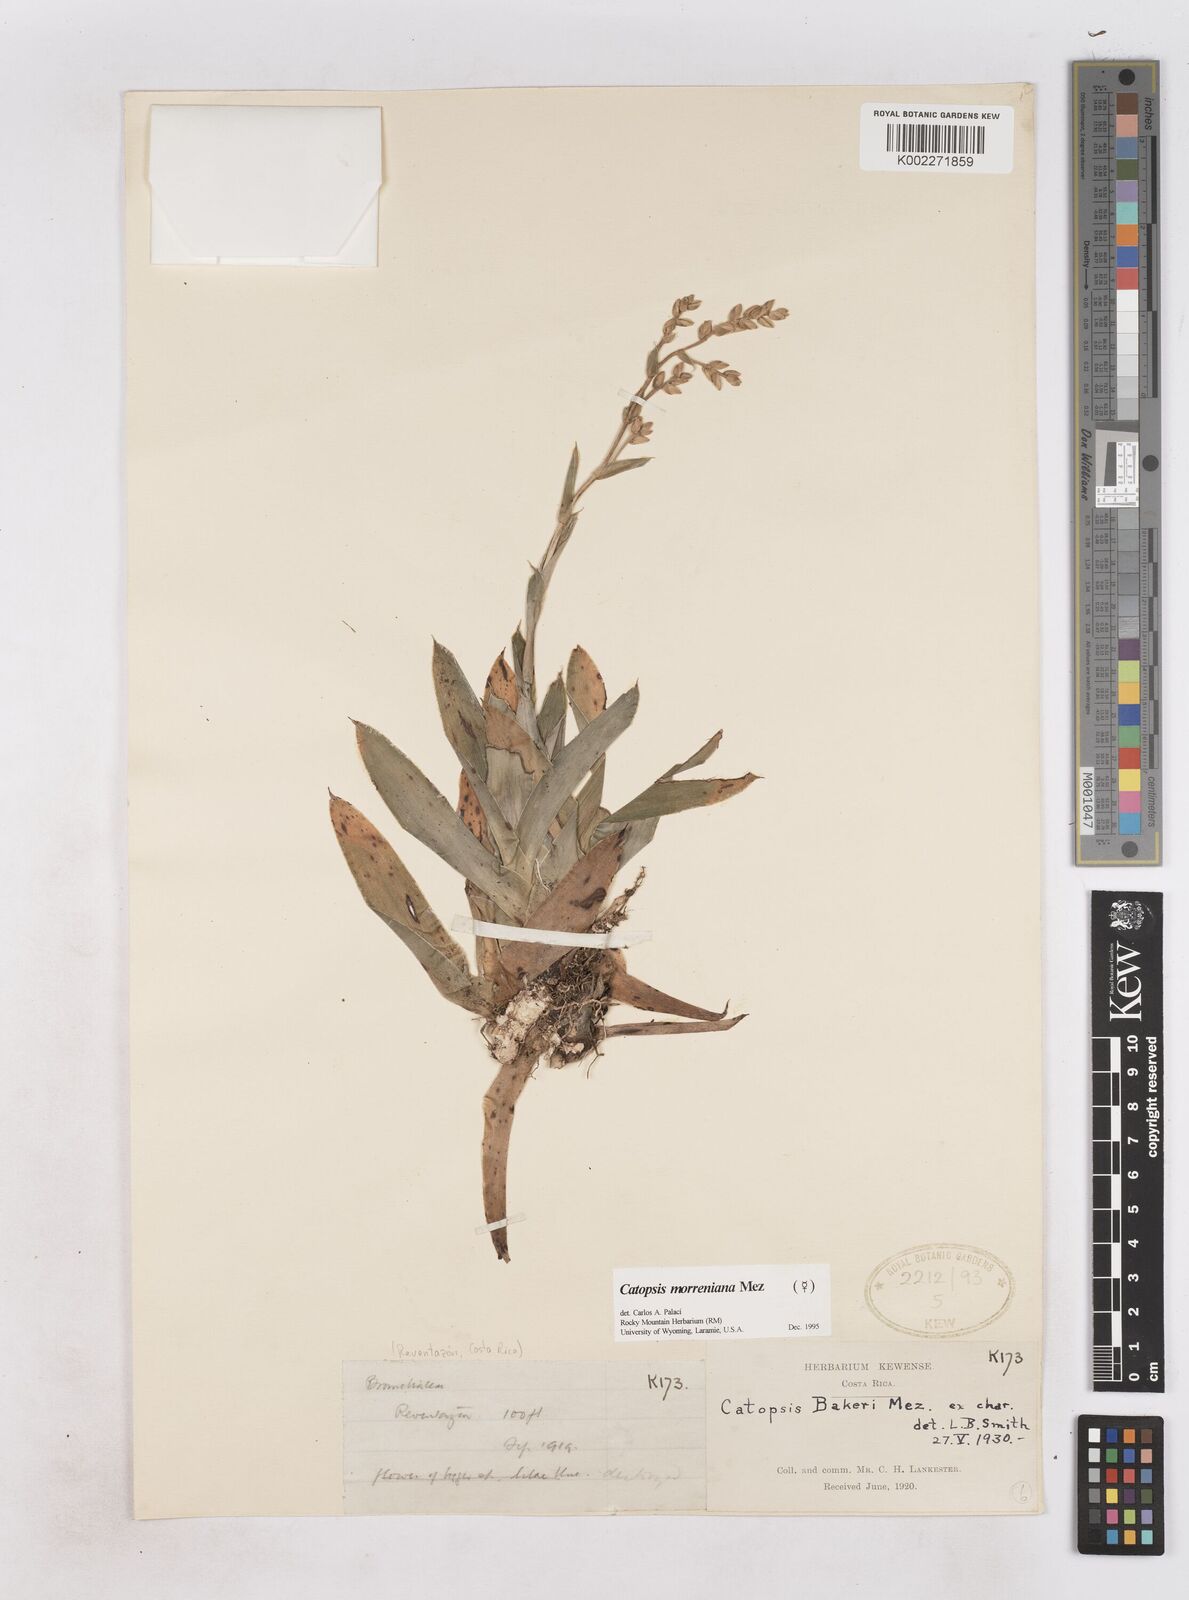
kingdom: Plantae
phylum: Tracheophyta
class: Liliopsida
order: Poales
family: Bromeliaceae
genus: Catopsis
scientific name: Catopsis morreniana
